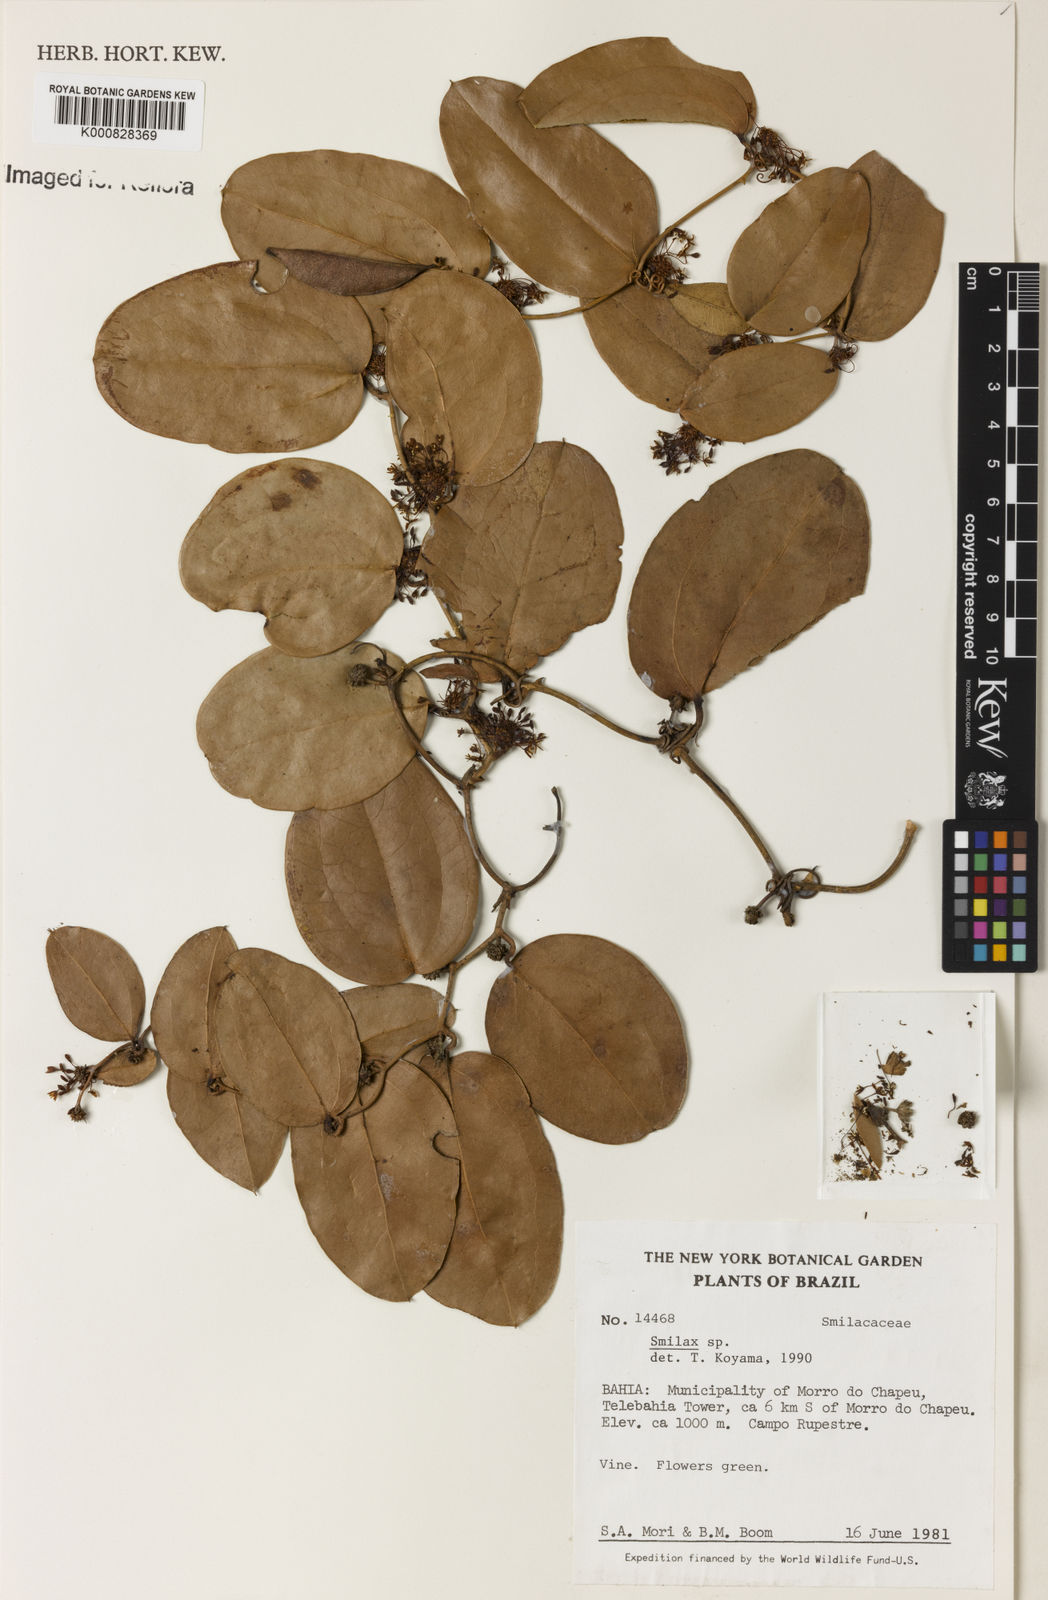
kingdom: Plantae
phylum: Tracheophyta
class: Liliopsida
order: Liliales
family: Smilacaceae
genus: Smilax
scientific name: Smilax
